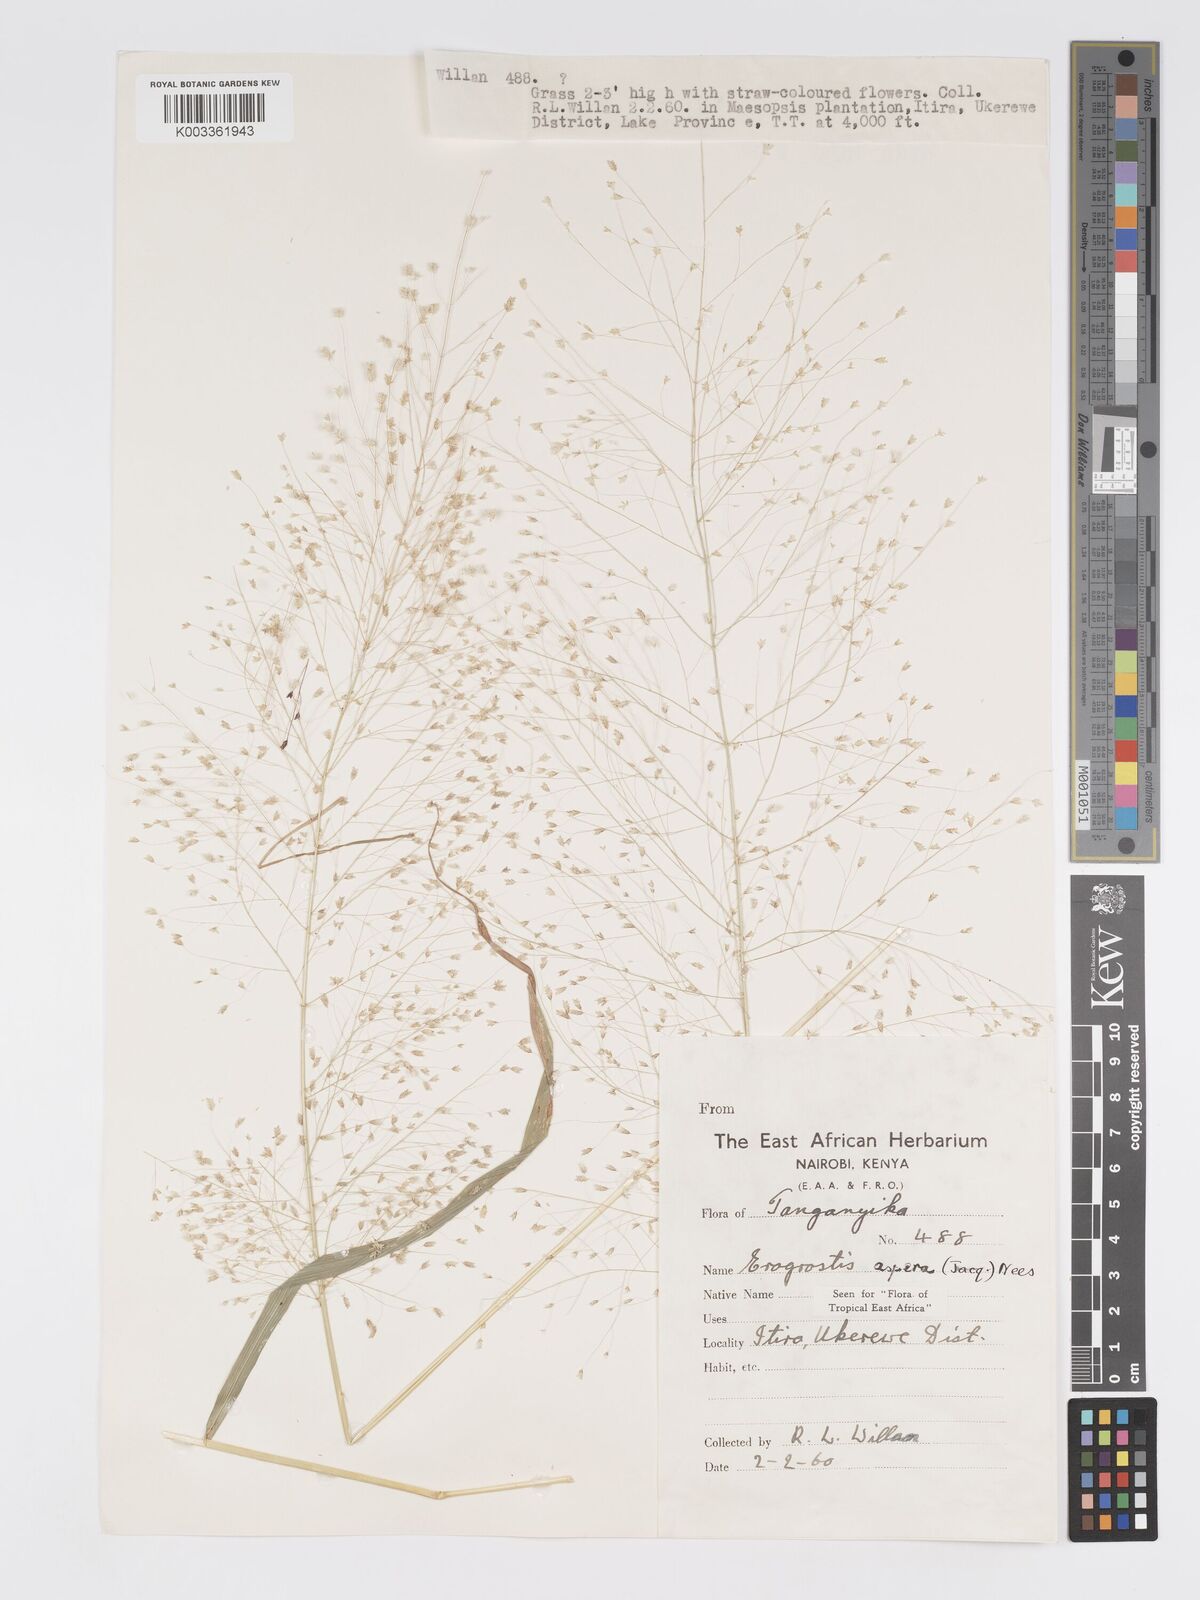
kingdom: Plantae
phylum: Tracheophyta
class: Liliopsida
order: Poales
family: Poaceae
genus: Eragrostis
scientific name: Eragrostis aspera
